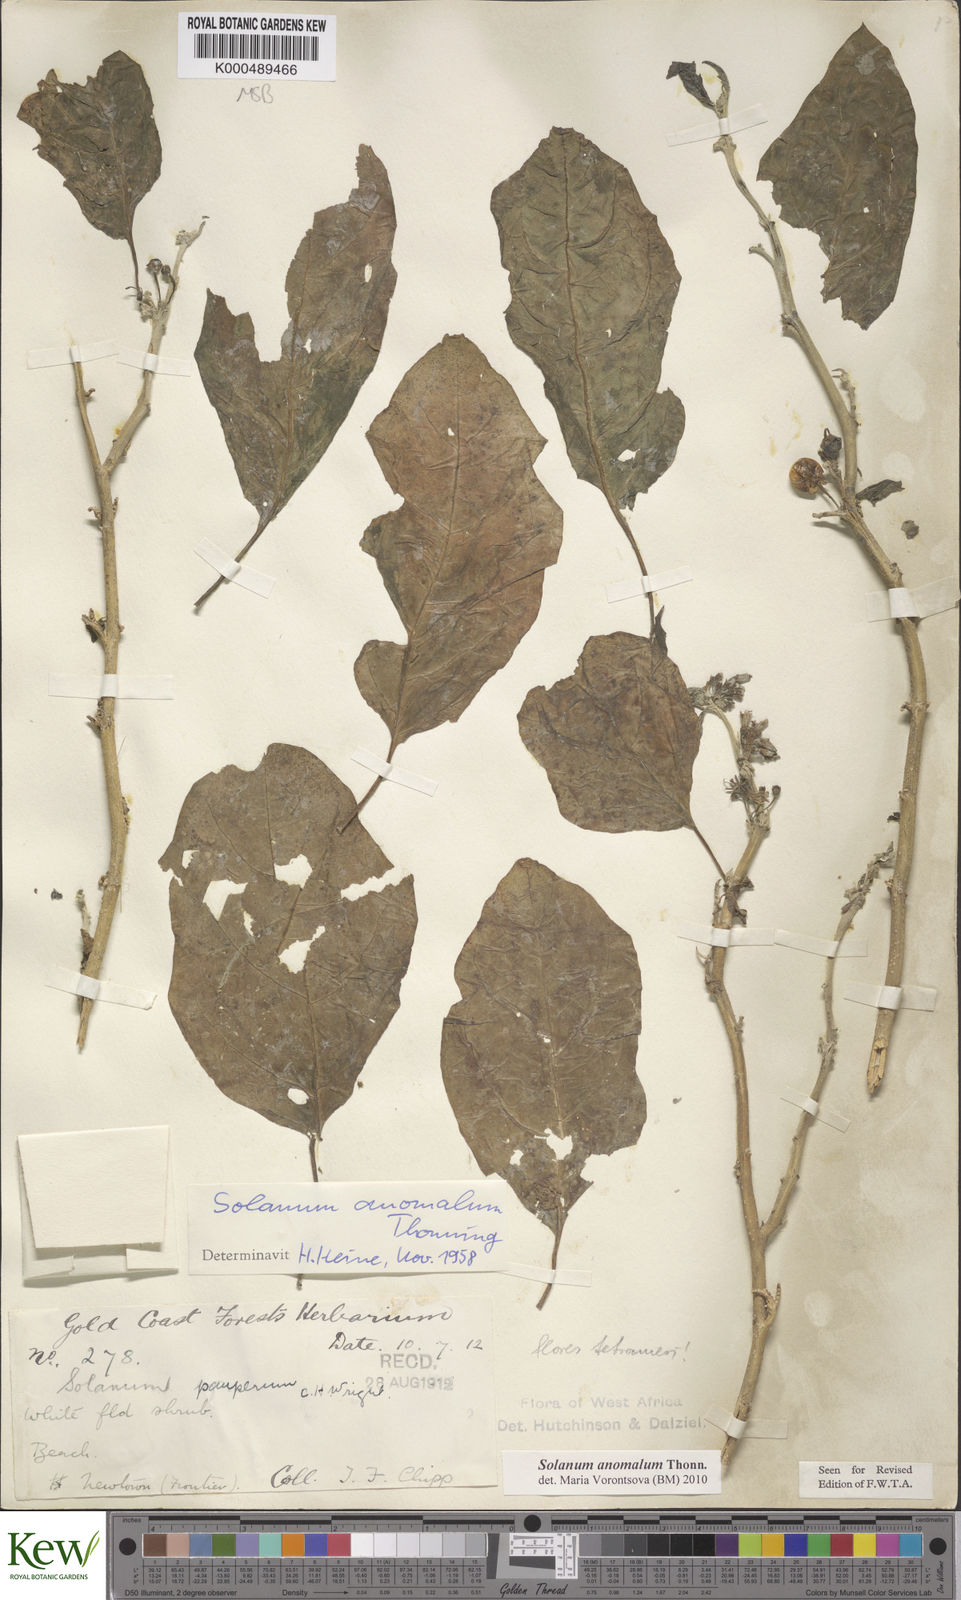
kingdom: Plantae
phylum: Tracheophyta
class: Magnoliopsida
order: Solanales
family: Solanaceae
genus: Solanum
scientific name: Solanum anomalum
